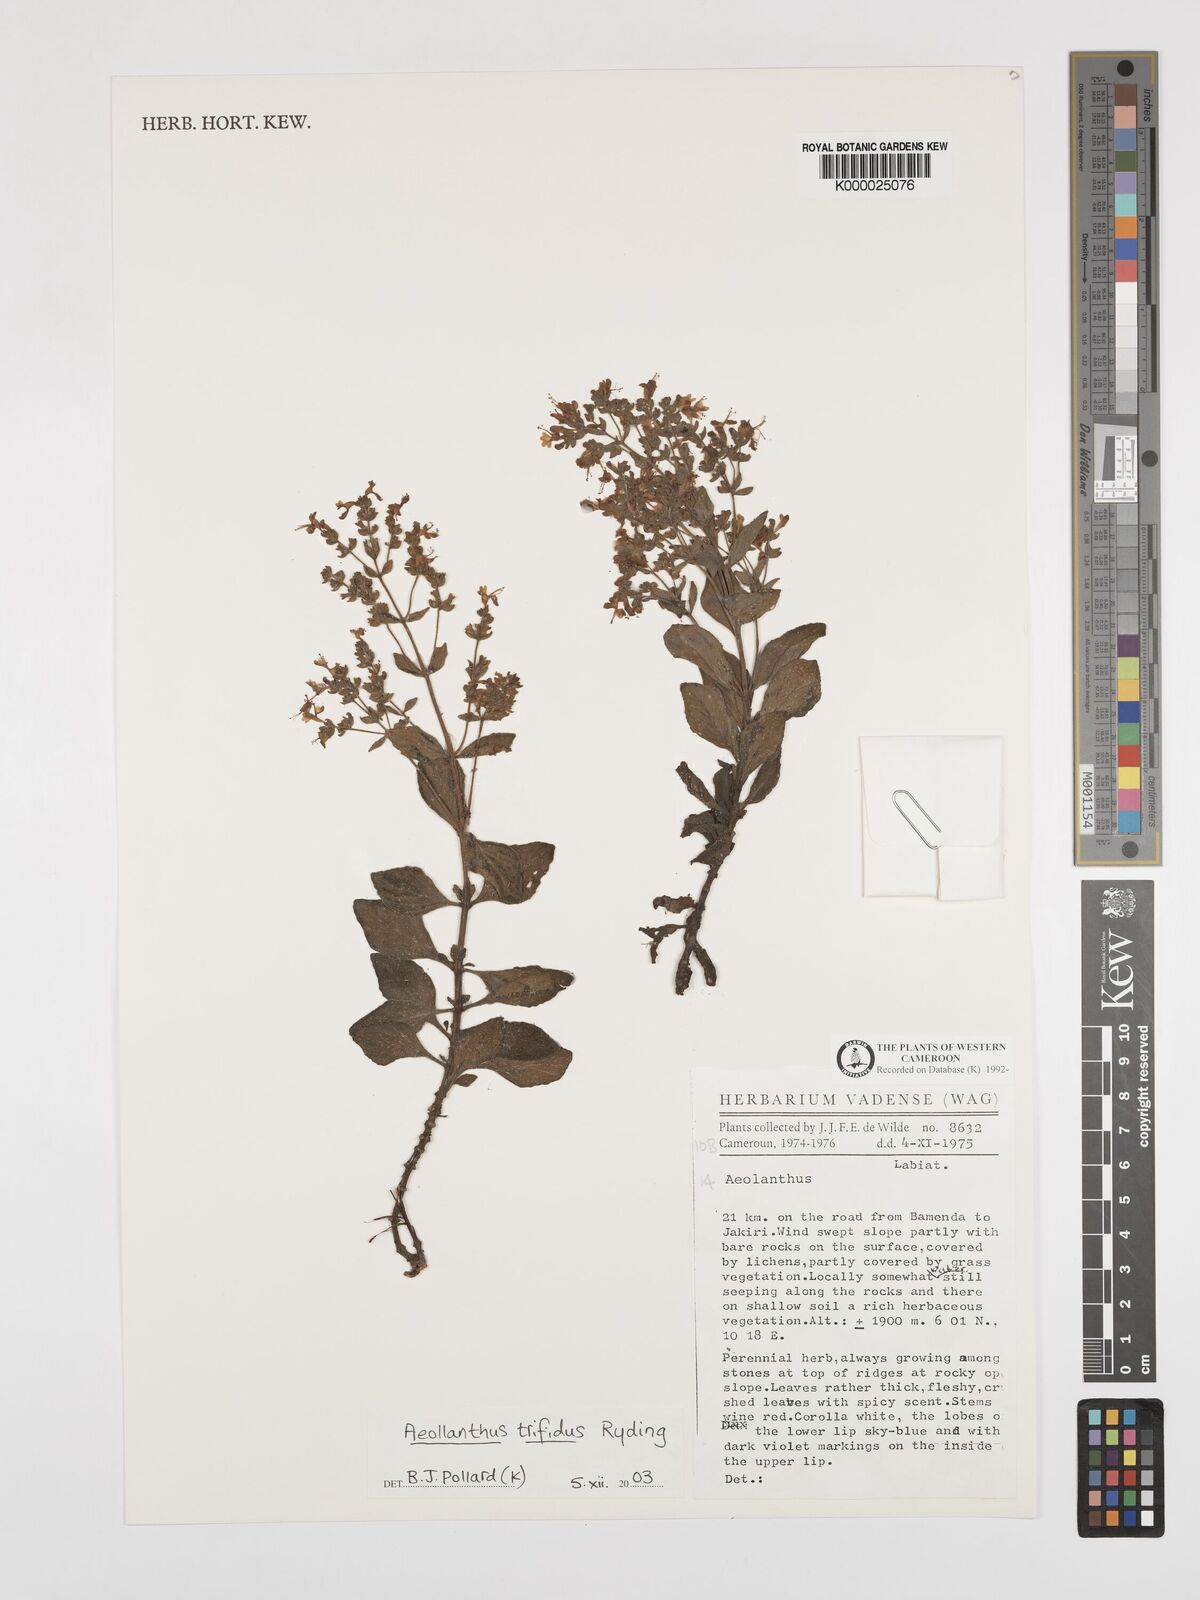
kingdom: Plantae
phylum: Tracheophyta
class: Magnoliopsida
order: Lamiales
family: Lamiaceae
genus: Aeollanthus
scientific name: Aeollanthus trifidus
